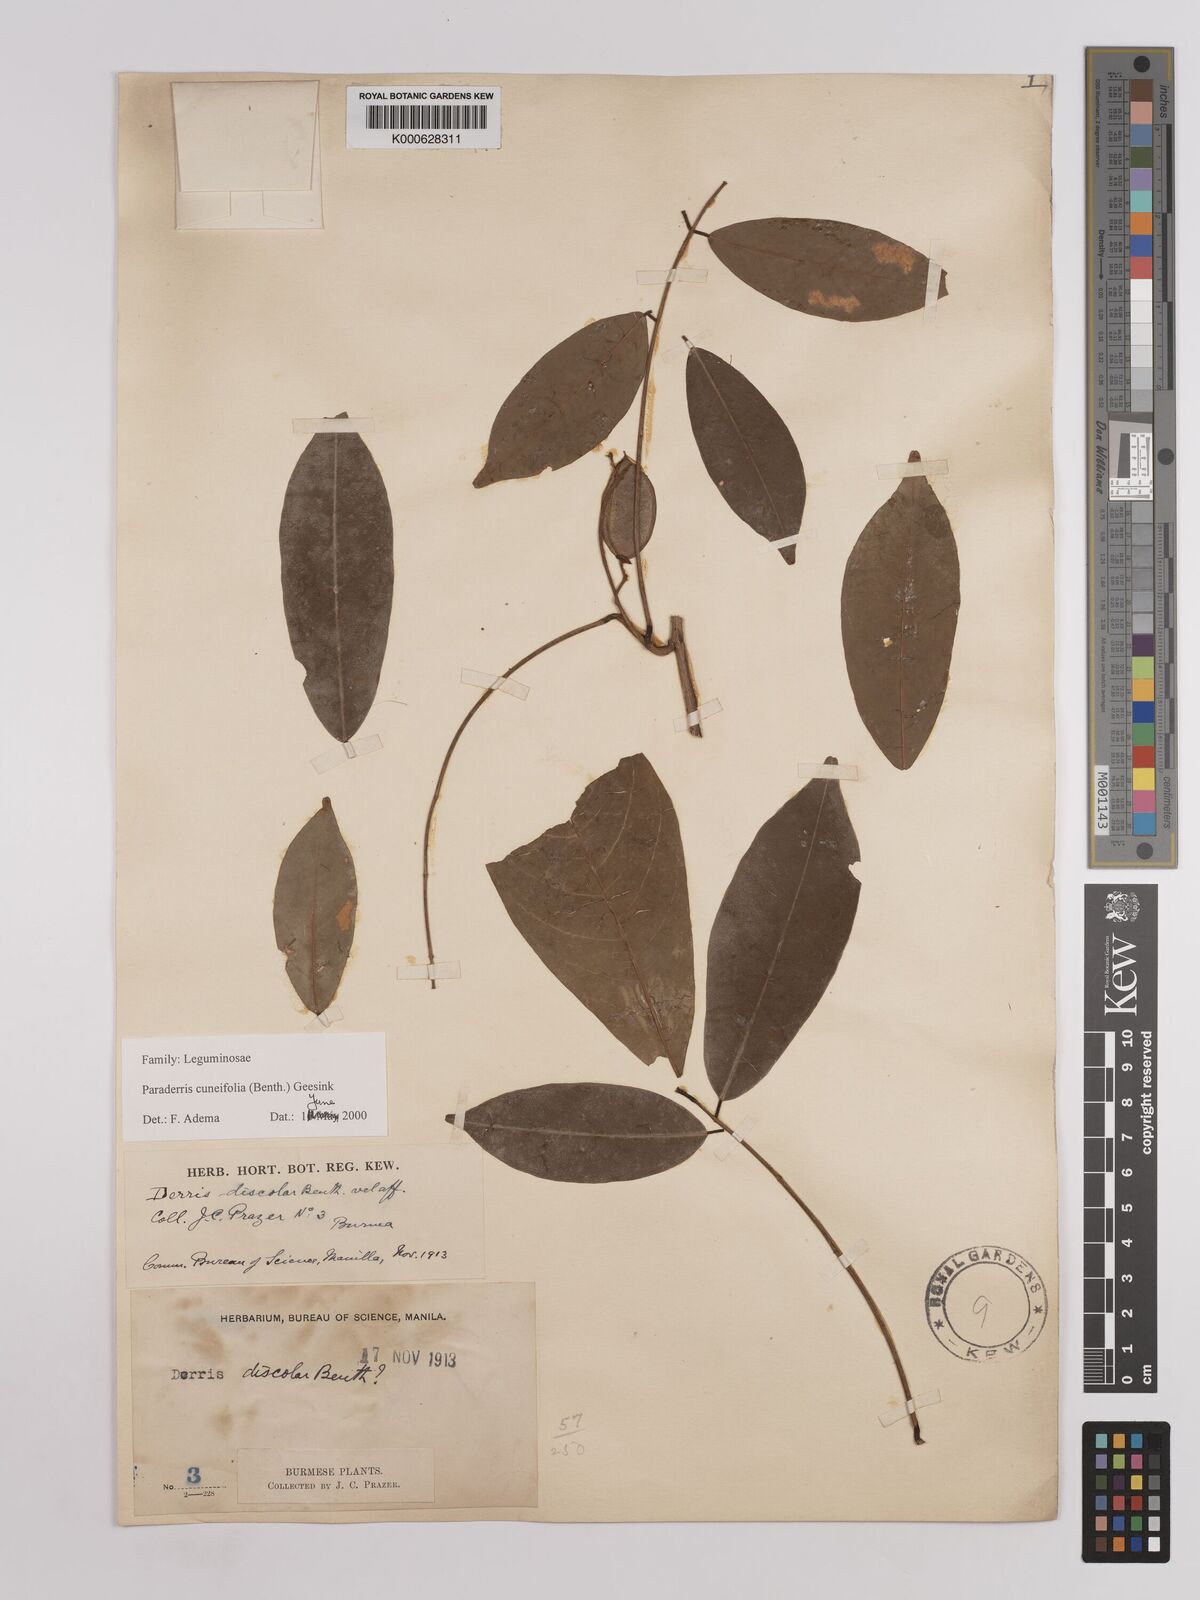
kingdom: Plantae
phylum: Tracheophyta
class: Magnoliopsida
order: Fabales
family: Fabaceae
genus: Derris
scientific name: Derris cuneifolia
